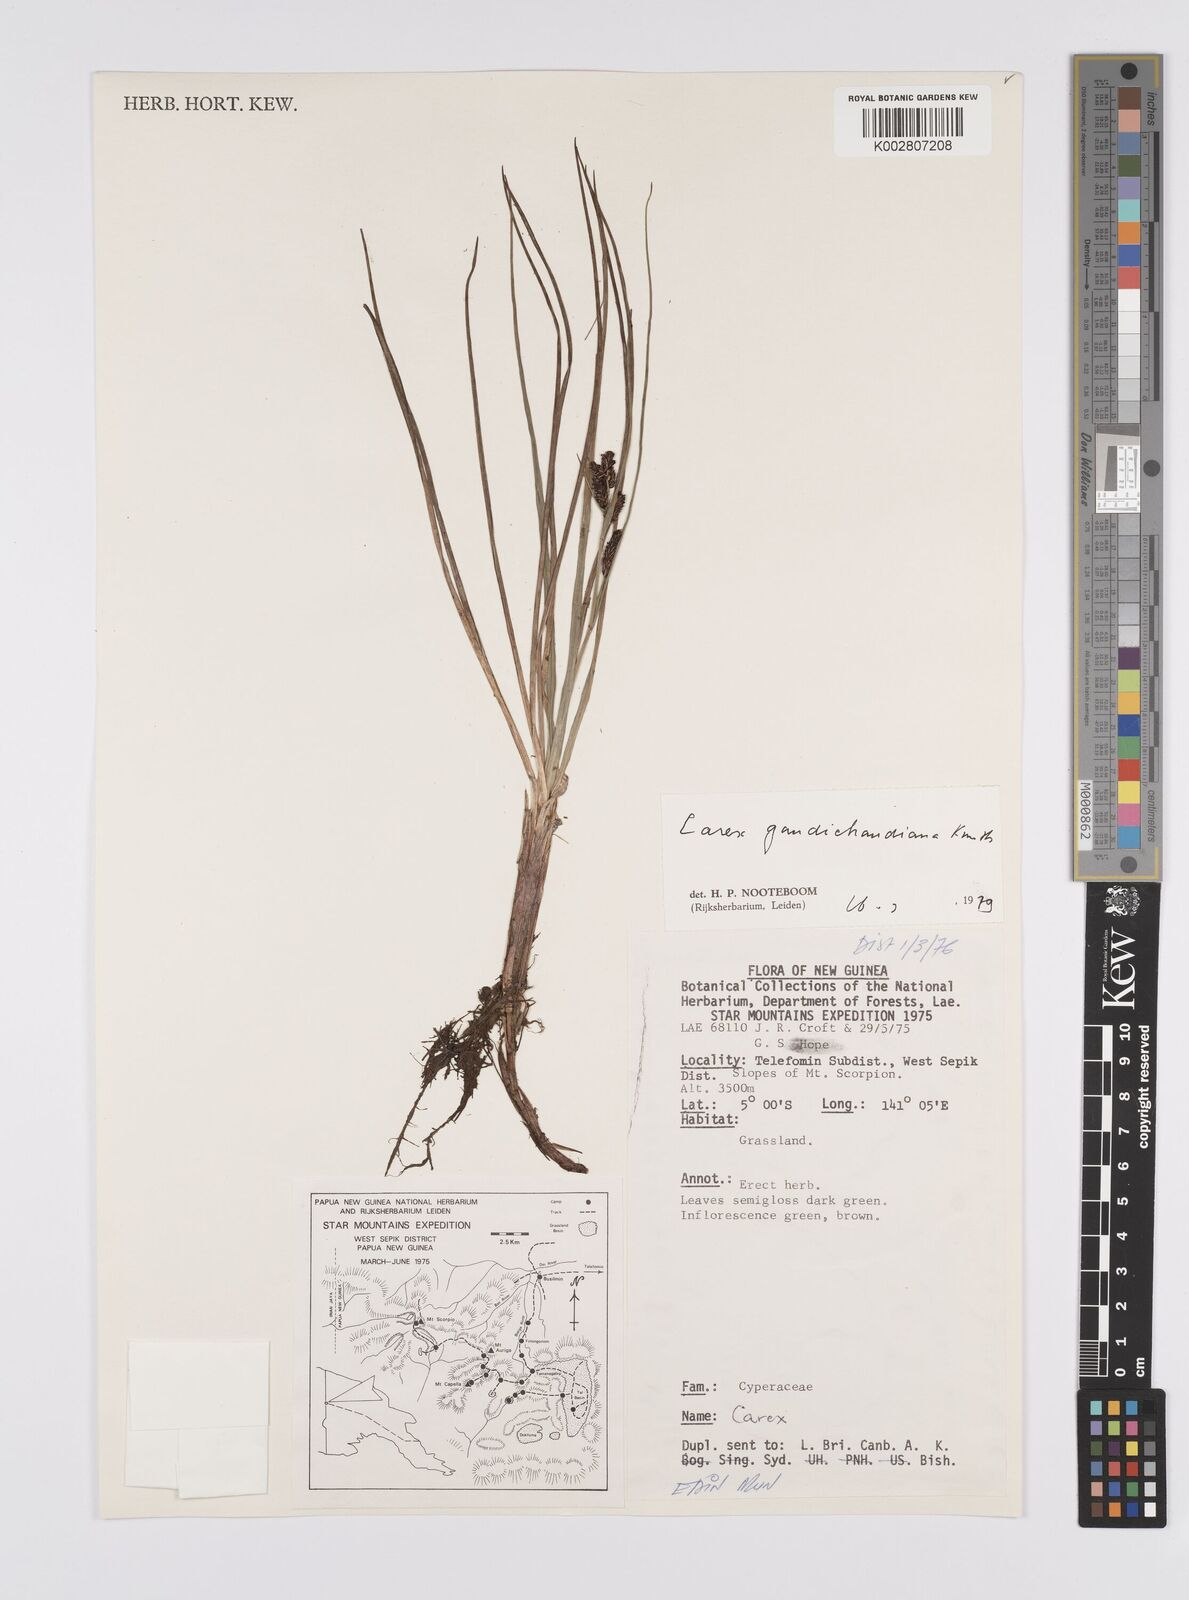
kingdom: Plantae
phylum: Tracheophyta
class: Liliopsida
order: Poales
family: Cyperaceae
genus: Carex
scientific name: Carex gaudichaudiana
